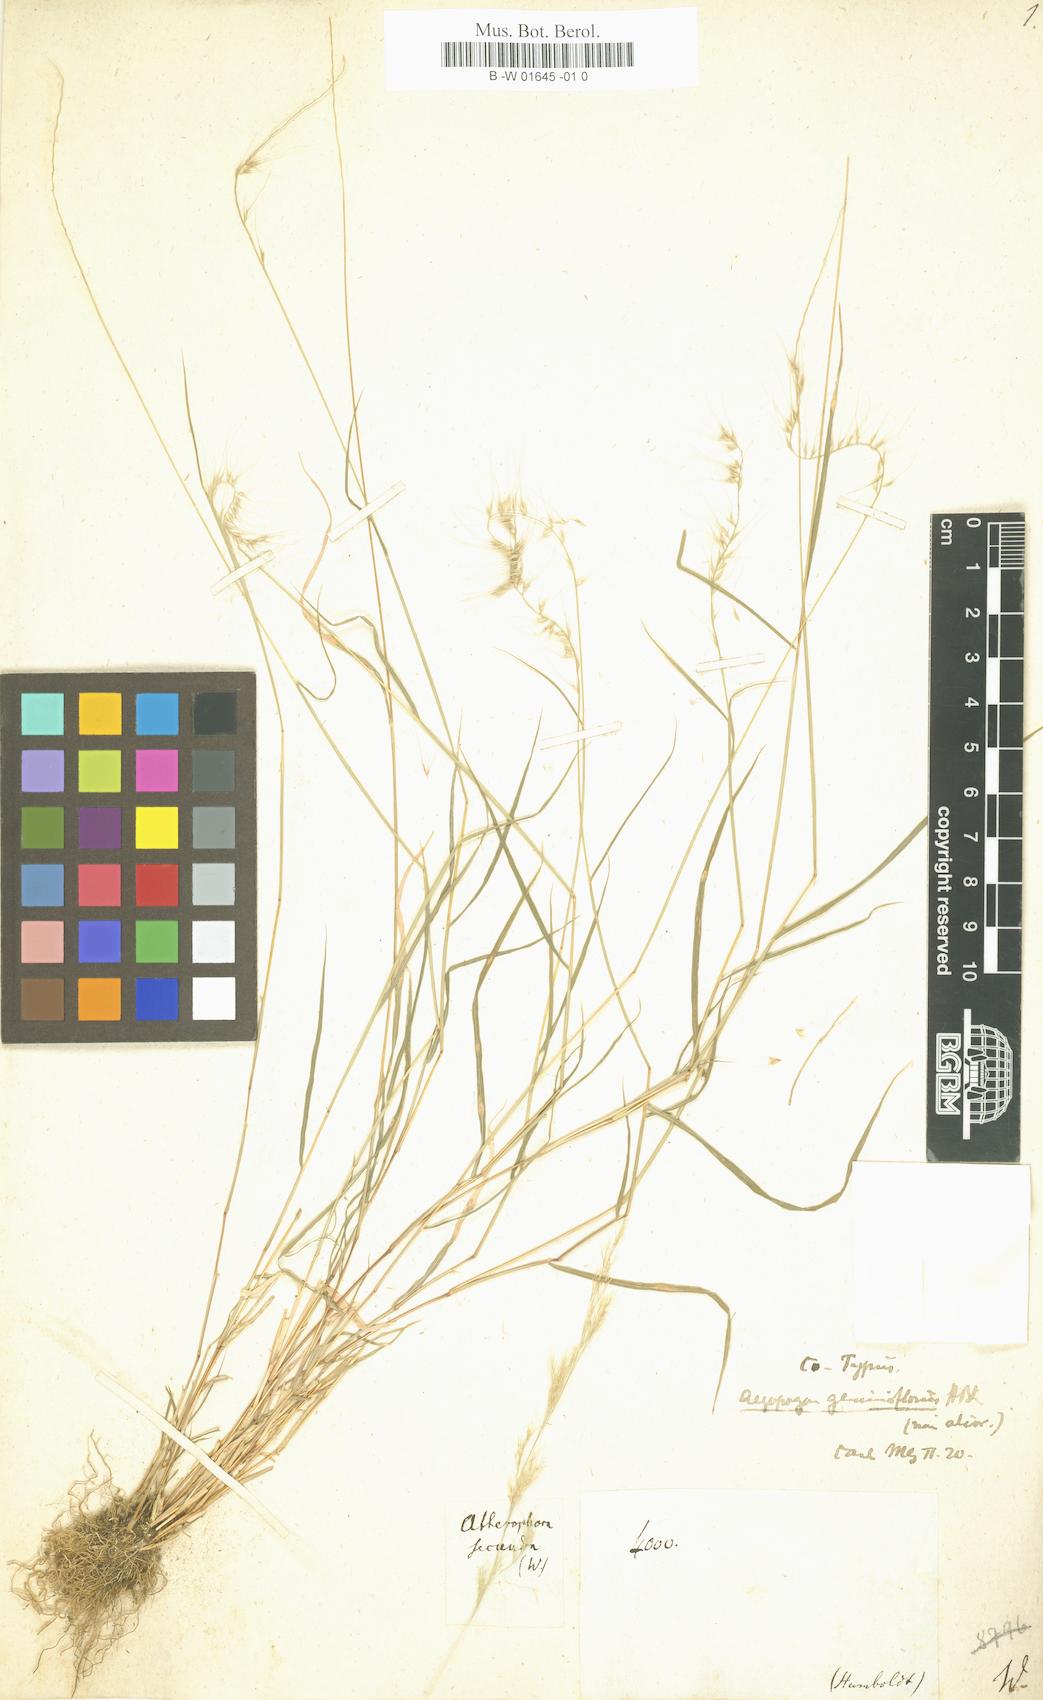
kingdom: Plantae
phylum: Tracheophyta
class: Liliopsida
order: Poales
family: Poaceae
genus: Muhlenbergia
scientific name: Muhlenbergia Atherophora secunda
